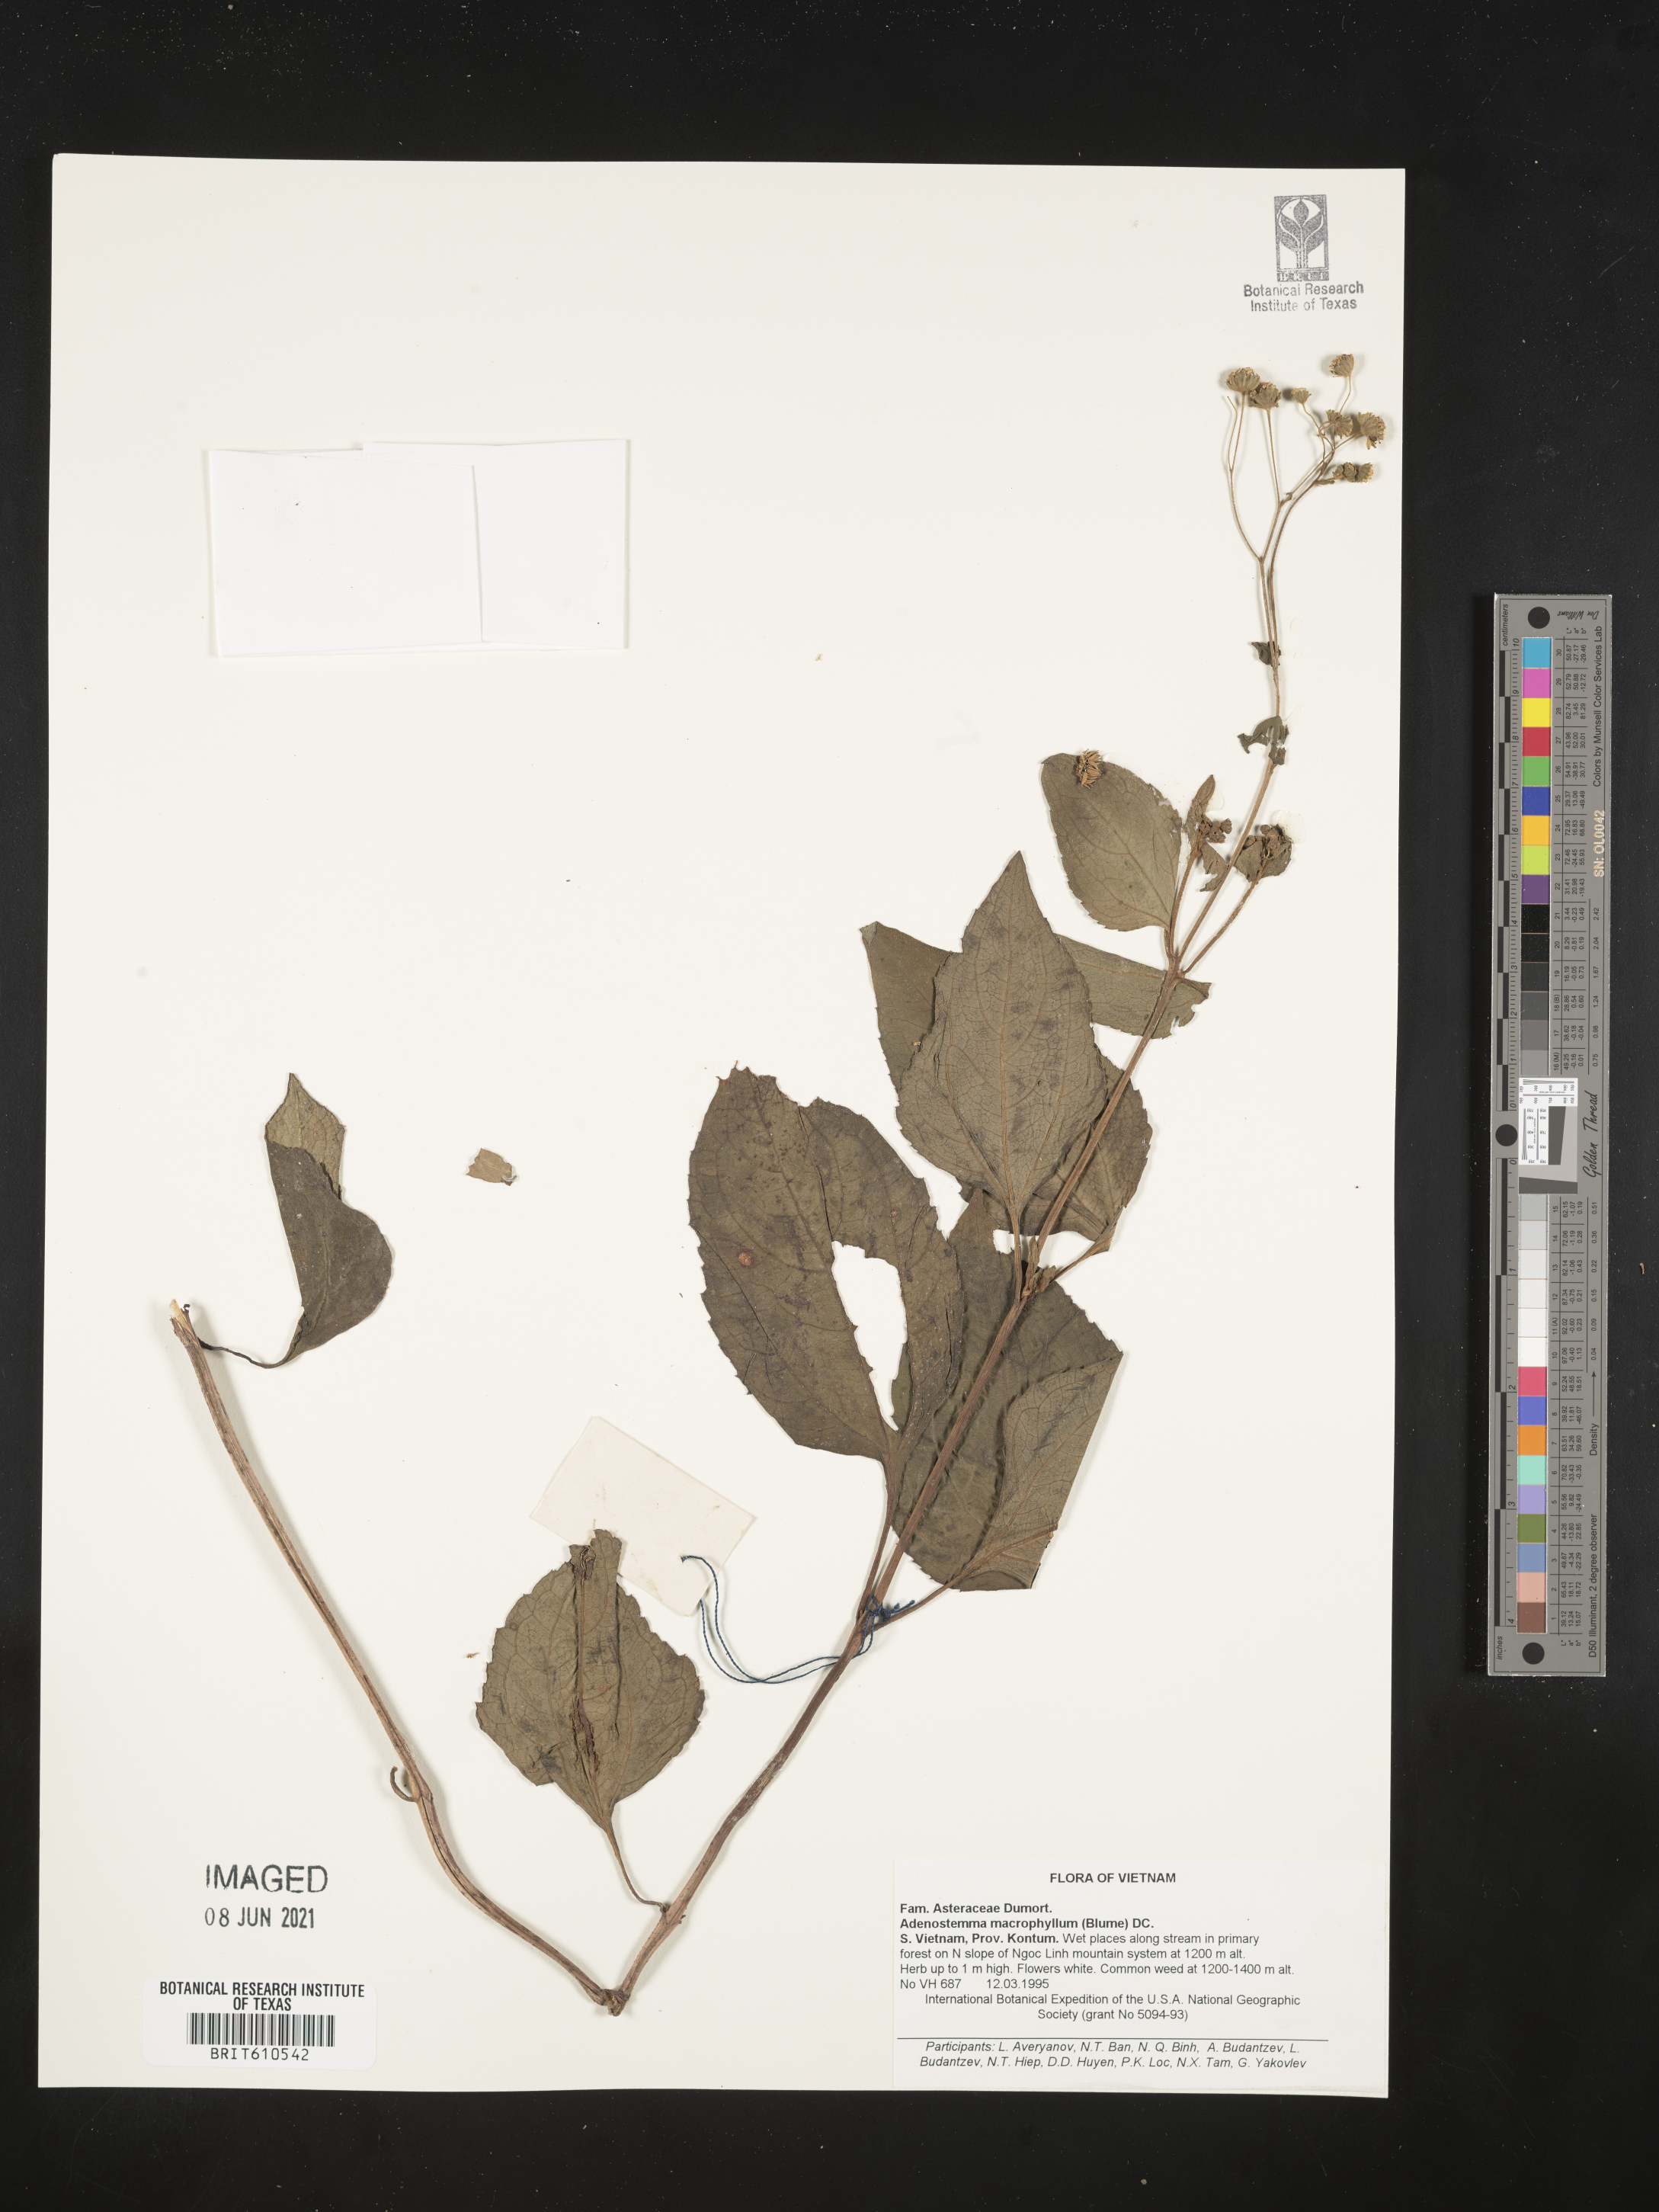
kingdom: Plantae
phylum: Tracheophyta
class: Magnoliopsida
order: Asterales
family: Asteraceae
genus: Adenostemma
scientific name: Adenostemma macrophyllum
